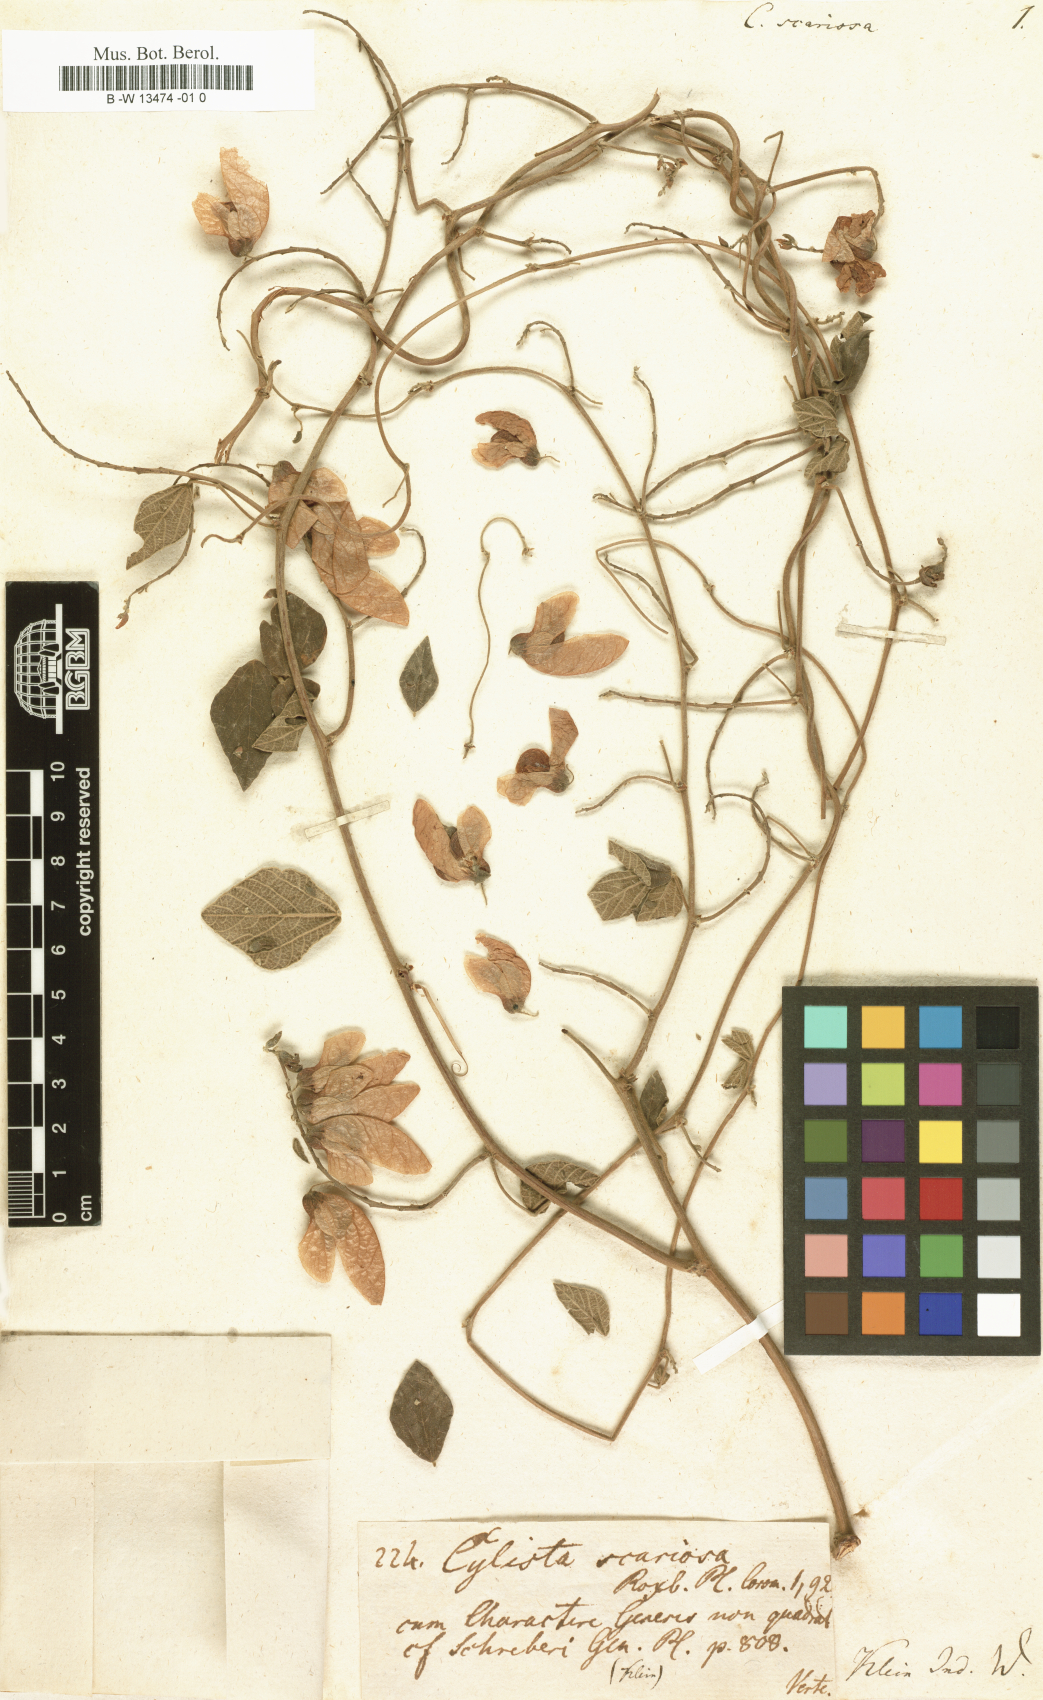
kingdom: Plantae
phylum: Tracheophyta
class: Magnoliopsida
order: Fabales
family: Fabaceae
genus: Paracalyx
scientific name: Paracalyx scariosus
